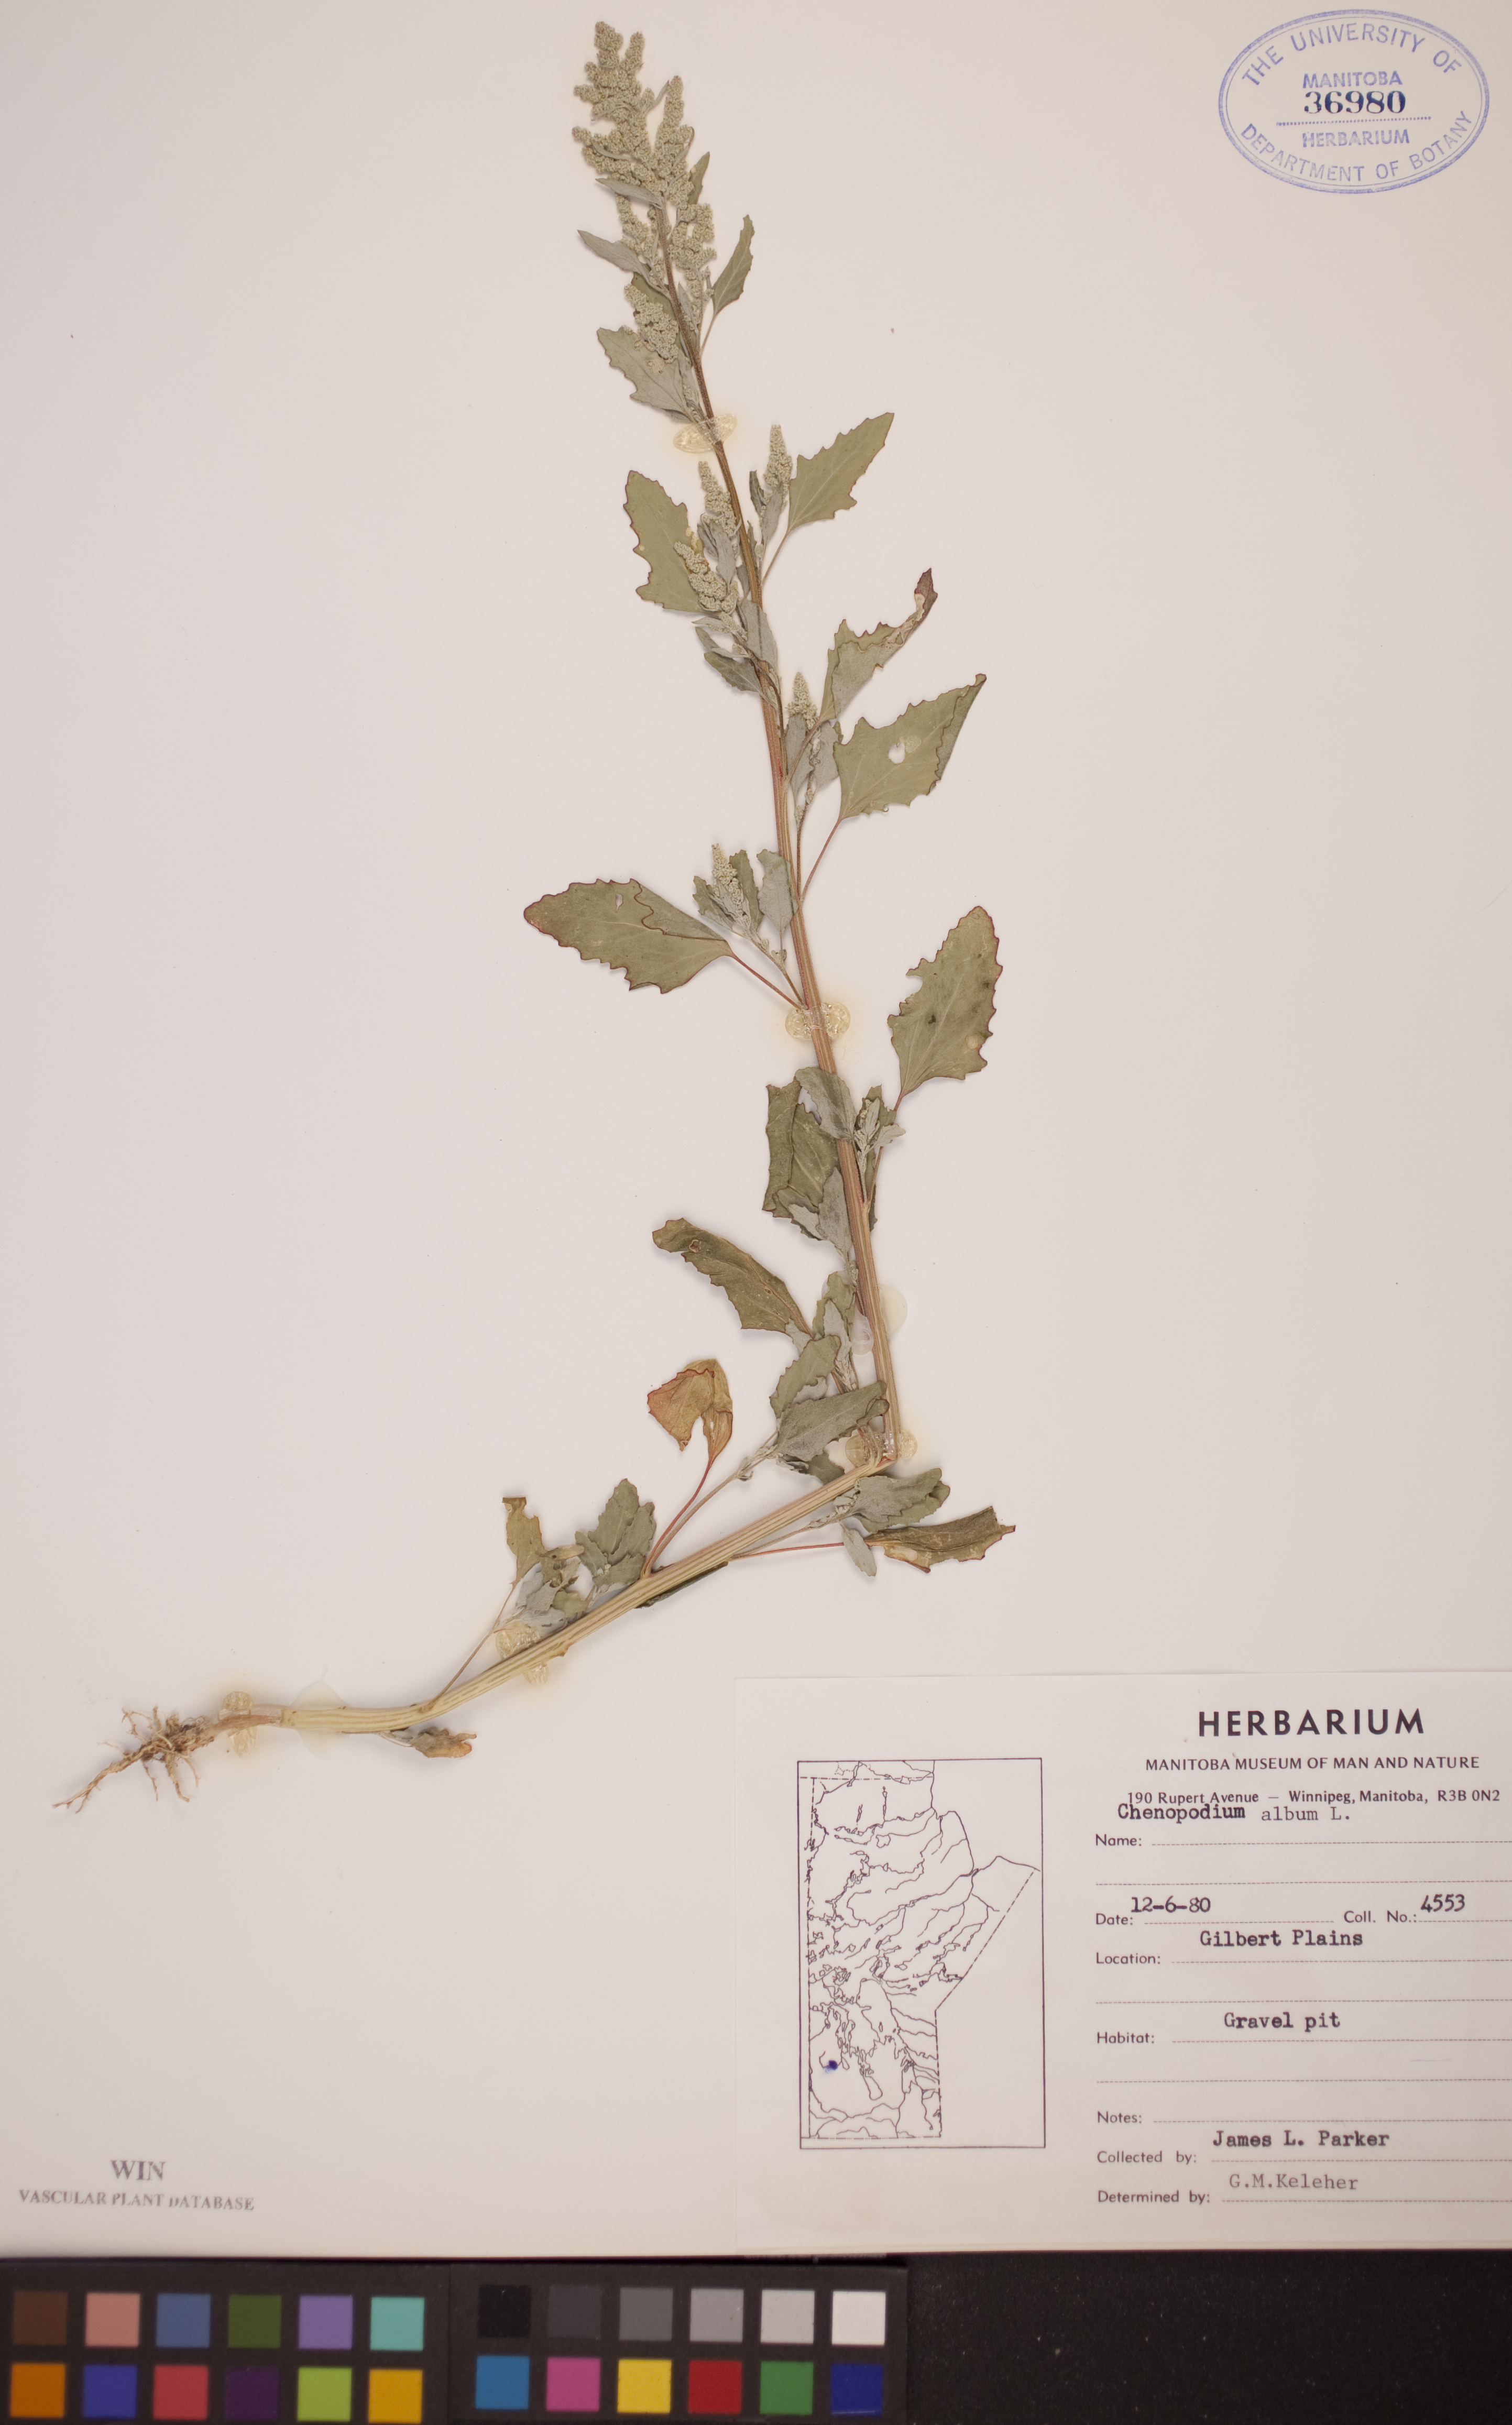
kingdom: Plantae
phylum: Tracheophyta
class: Magnoliopsida
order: Caryophyllales
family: Amaranthaceae
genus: Chenopodium
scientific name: Chenopodium album
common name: Fat-hen
